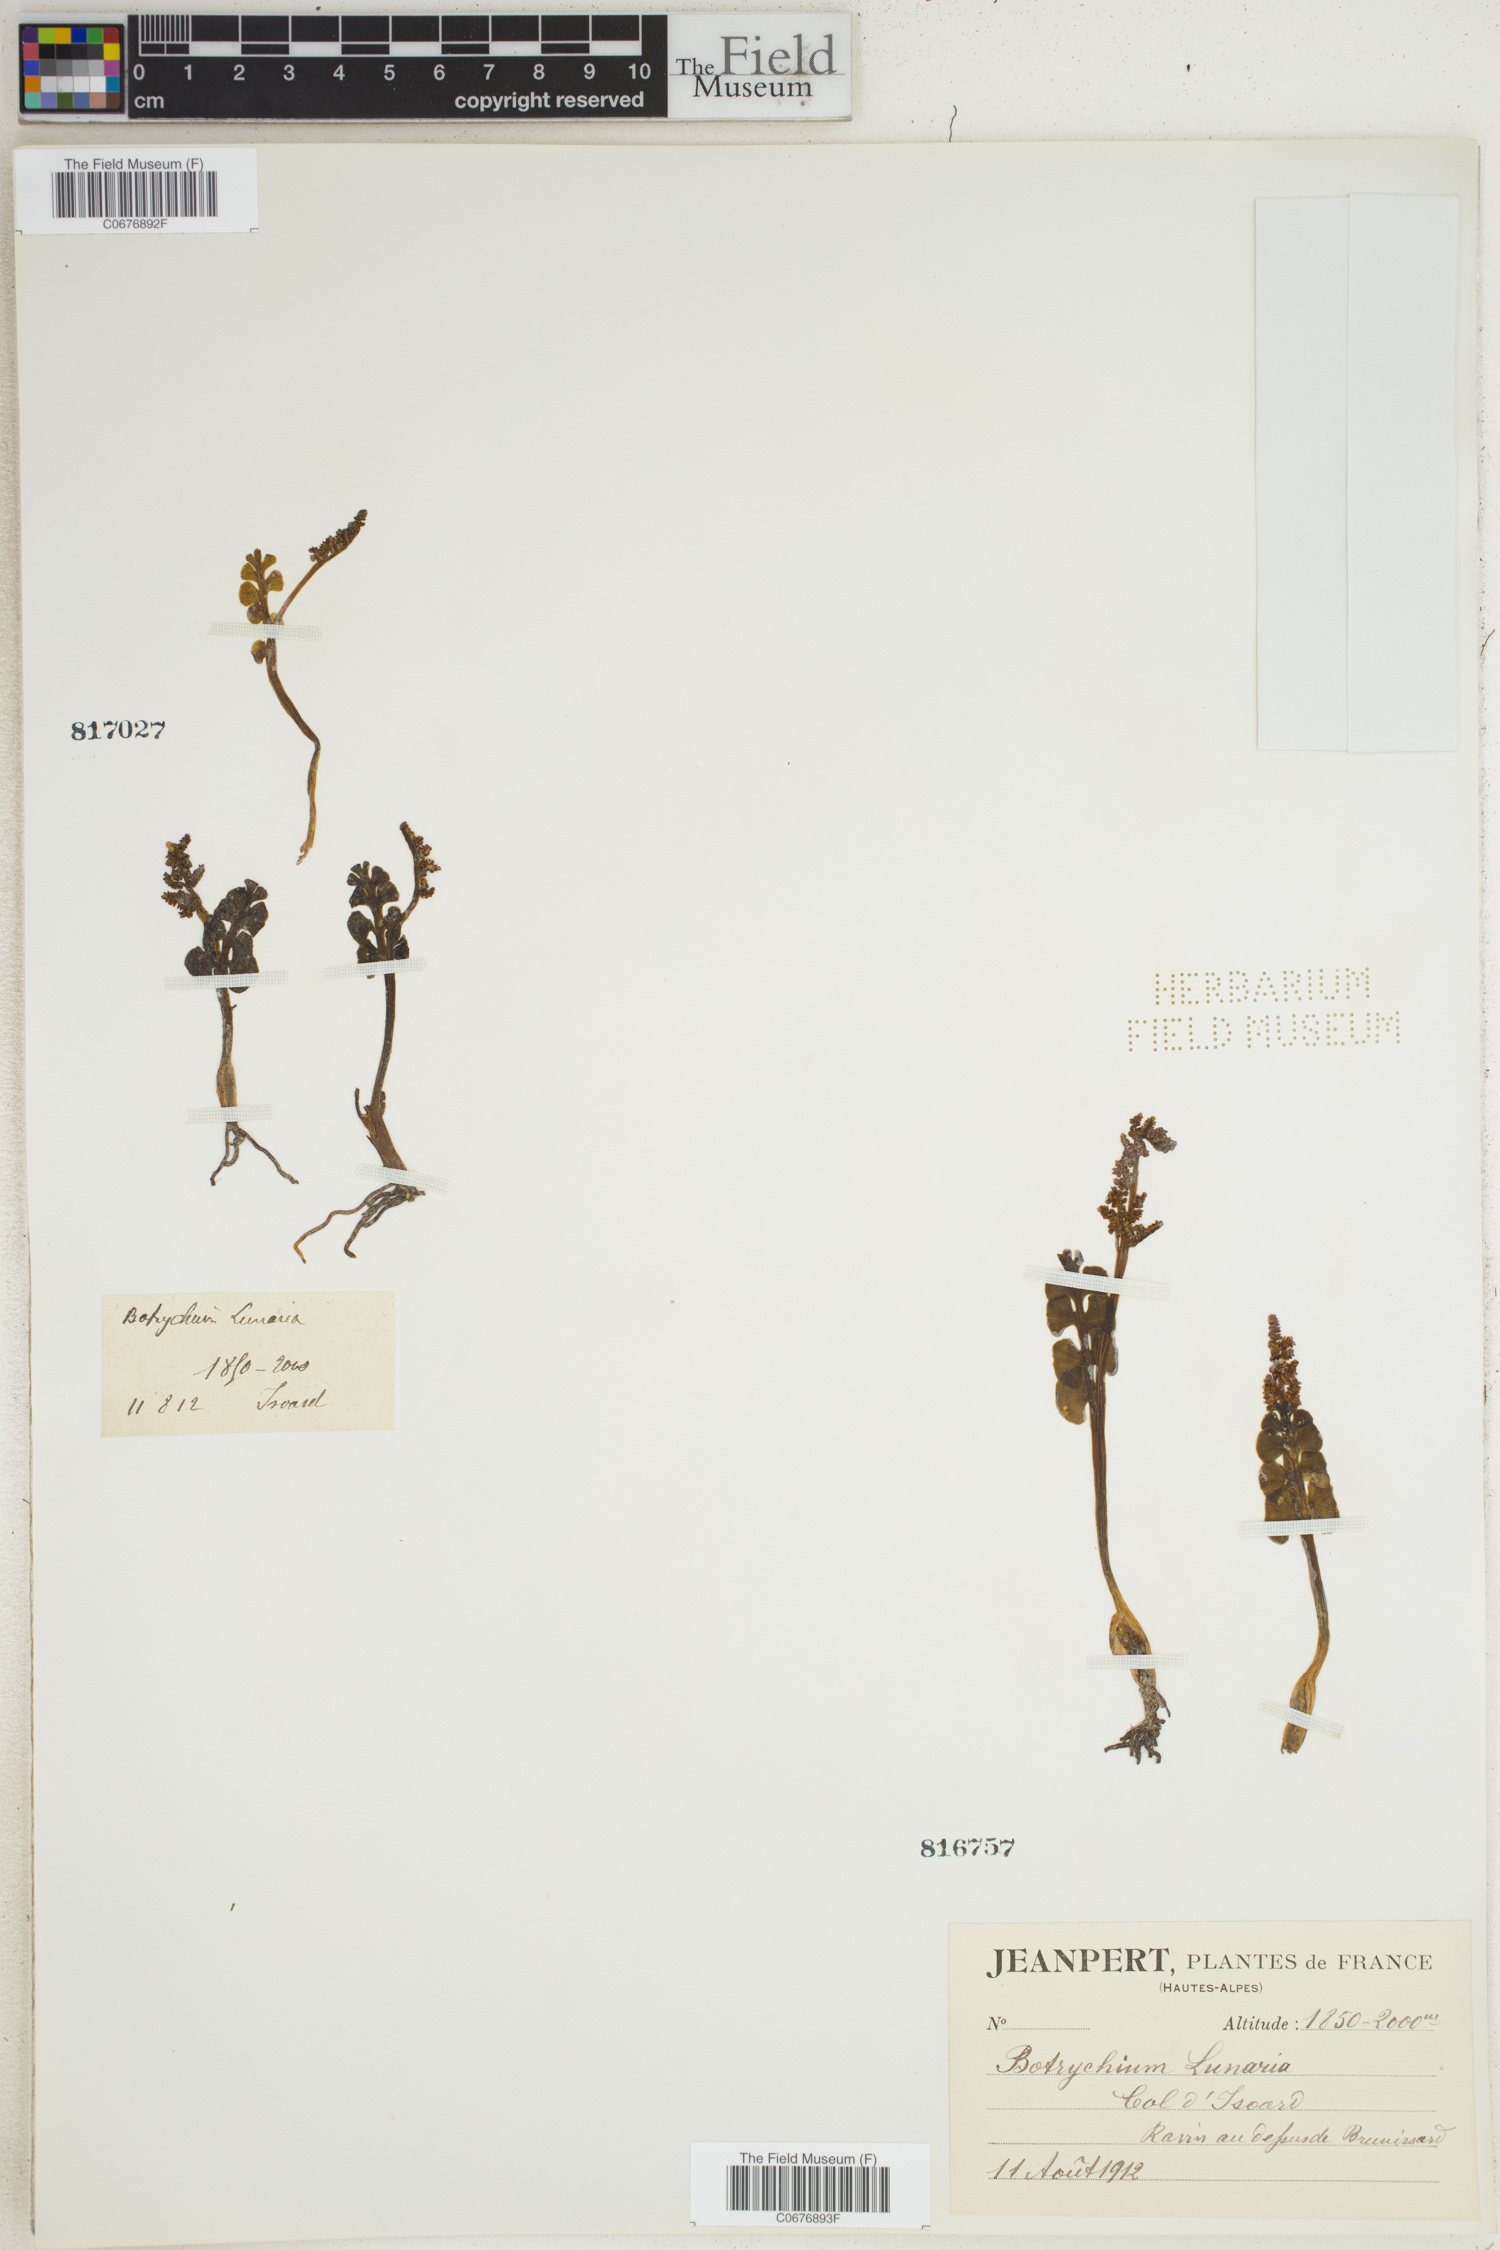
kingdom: Plantae
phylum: Tracheophyta
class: Polypodiopsida
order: Ophioglossales
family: Ophioglossaceae
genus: Botrychium
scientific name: Botrychium lunaria
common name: Moonwort
